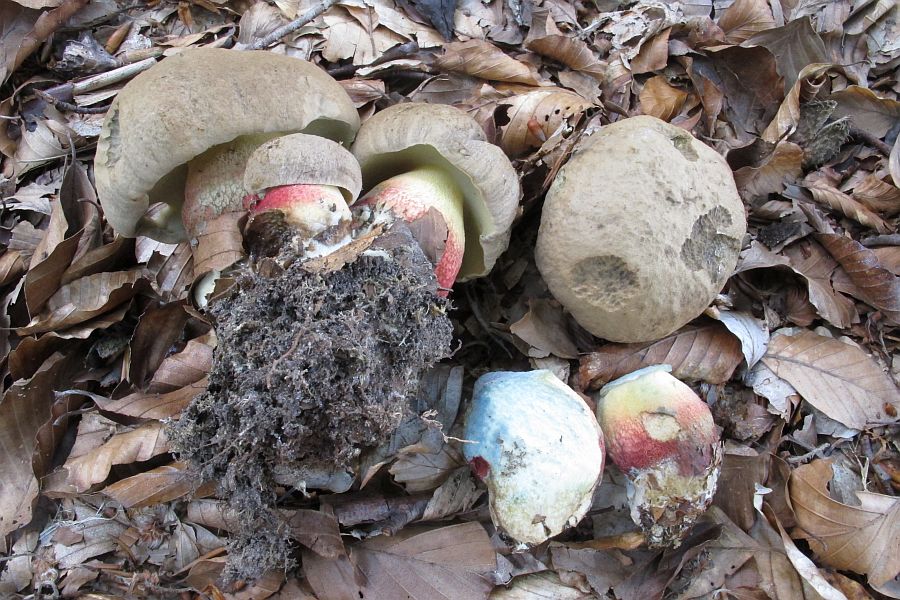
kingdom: Fungi
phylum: Basidiomycota
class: Agaricomycetes
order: Boletales
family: Boletaceae
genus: Caloboletus
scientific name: Caloboletus calopus
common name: skønfodet rørhat
